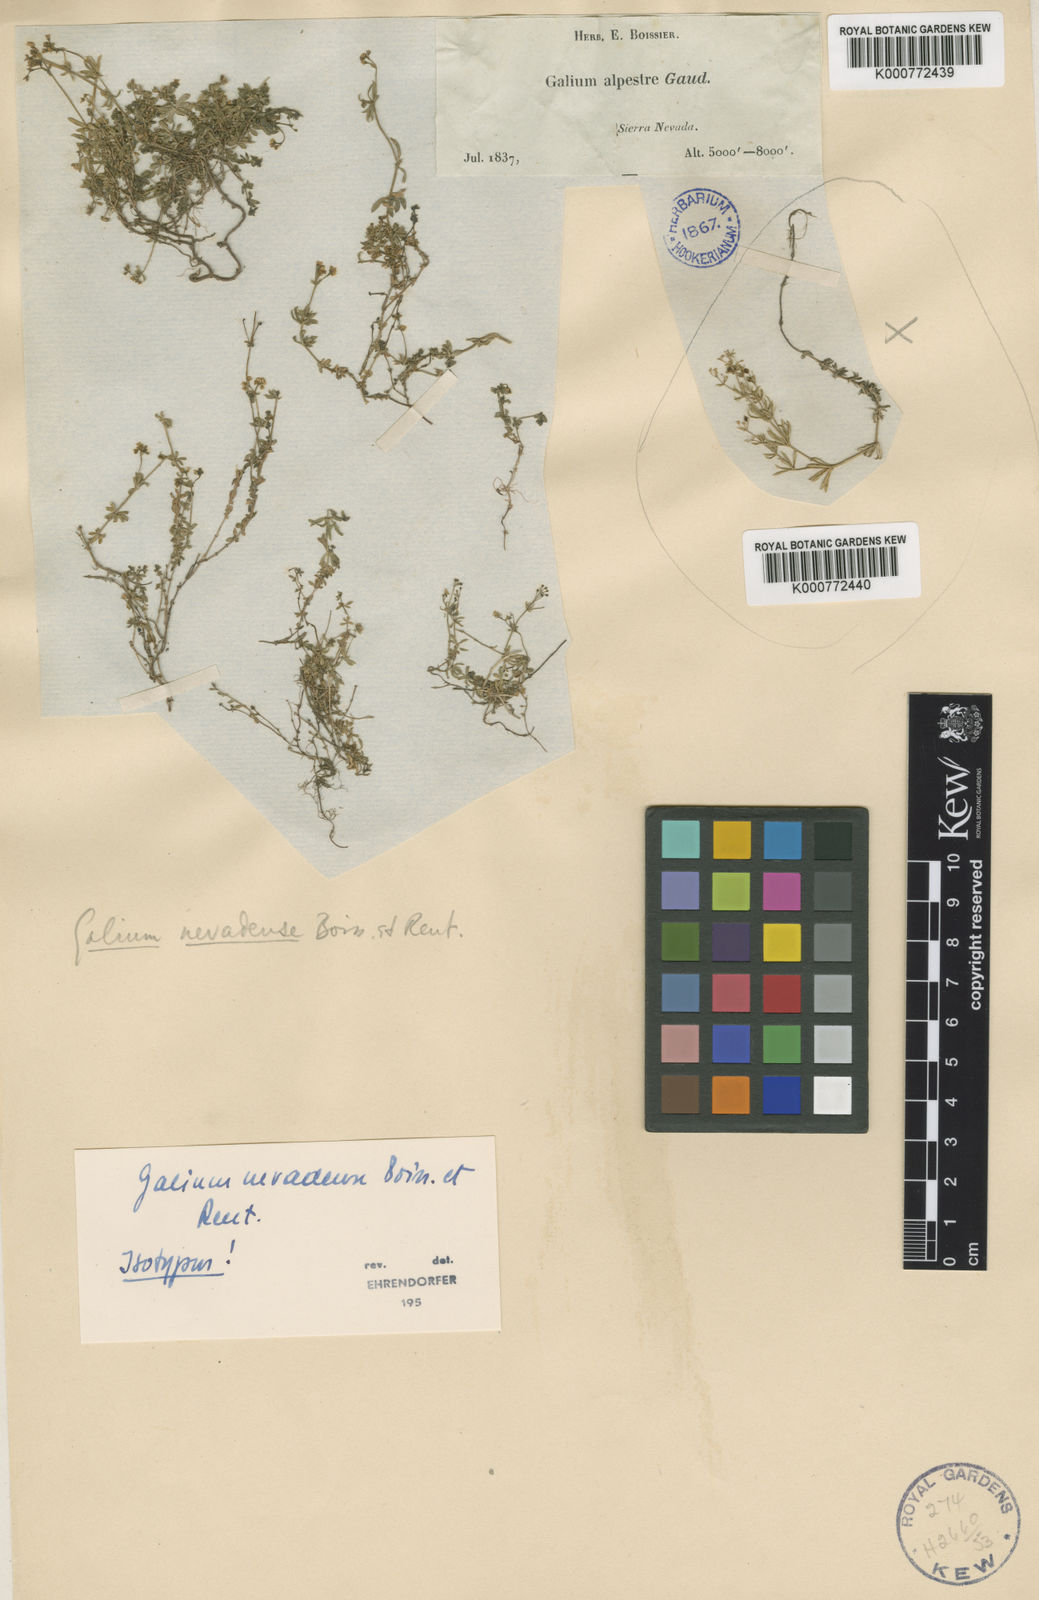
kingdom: Plantae
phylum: Tracheophyta
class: Magnoliopsida
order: Gentianales
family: Rubiaceae
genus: Galium
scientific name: Galium nevadense
